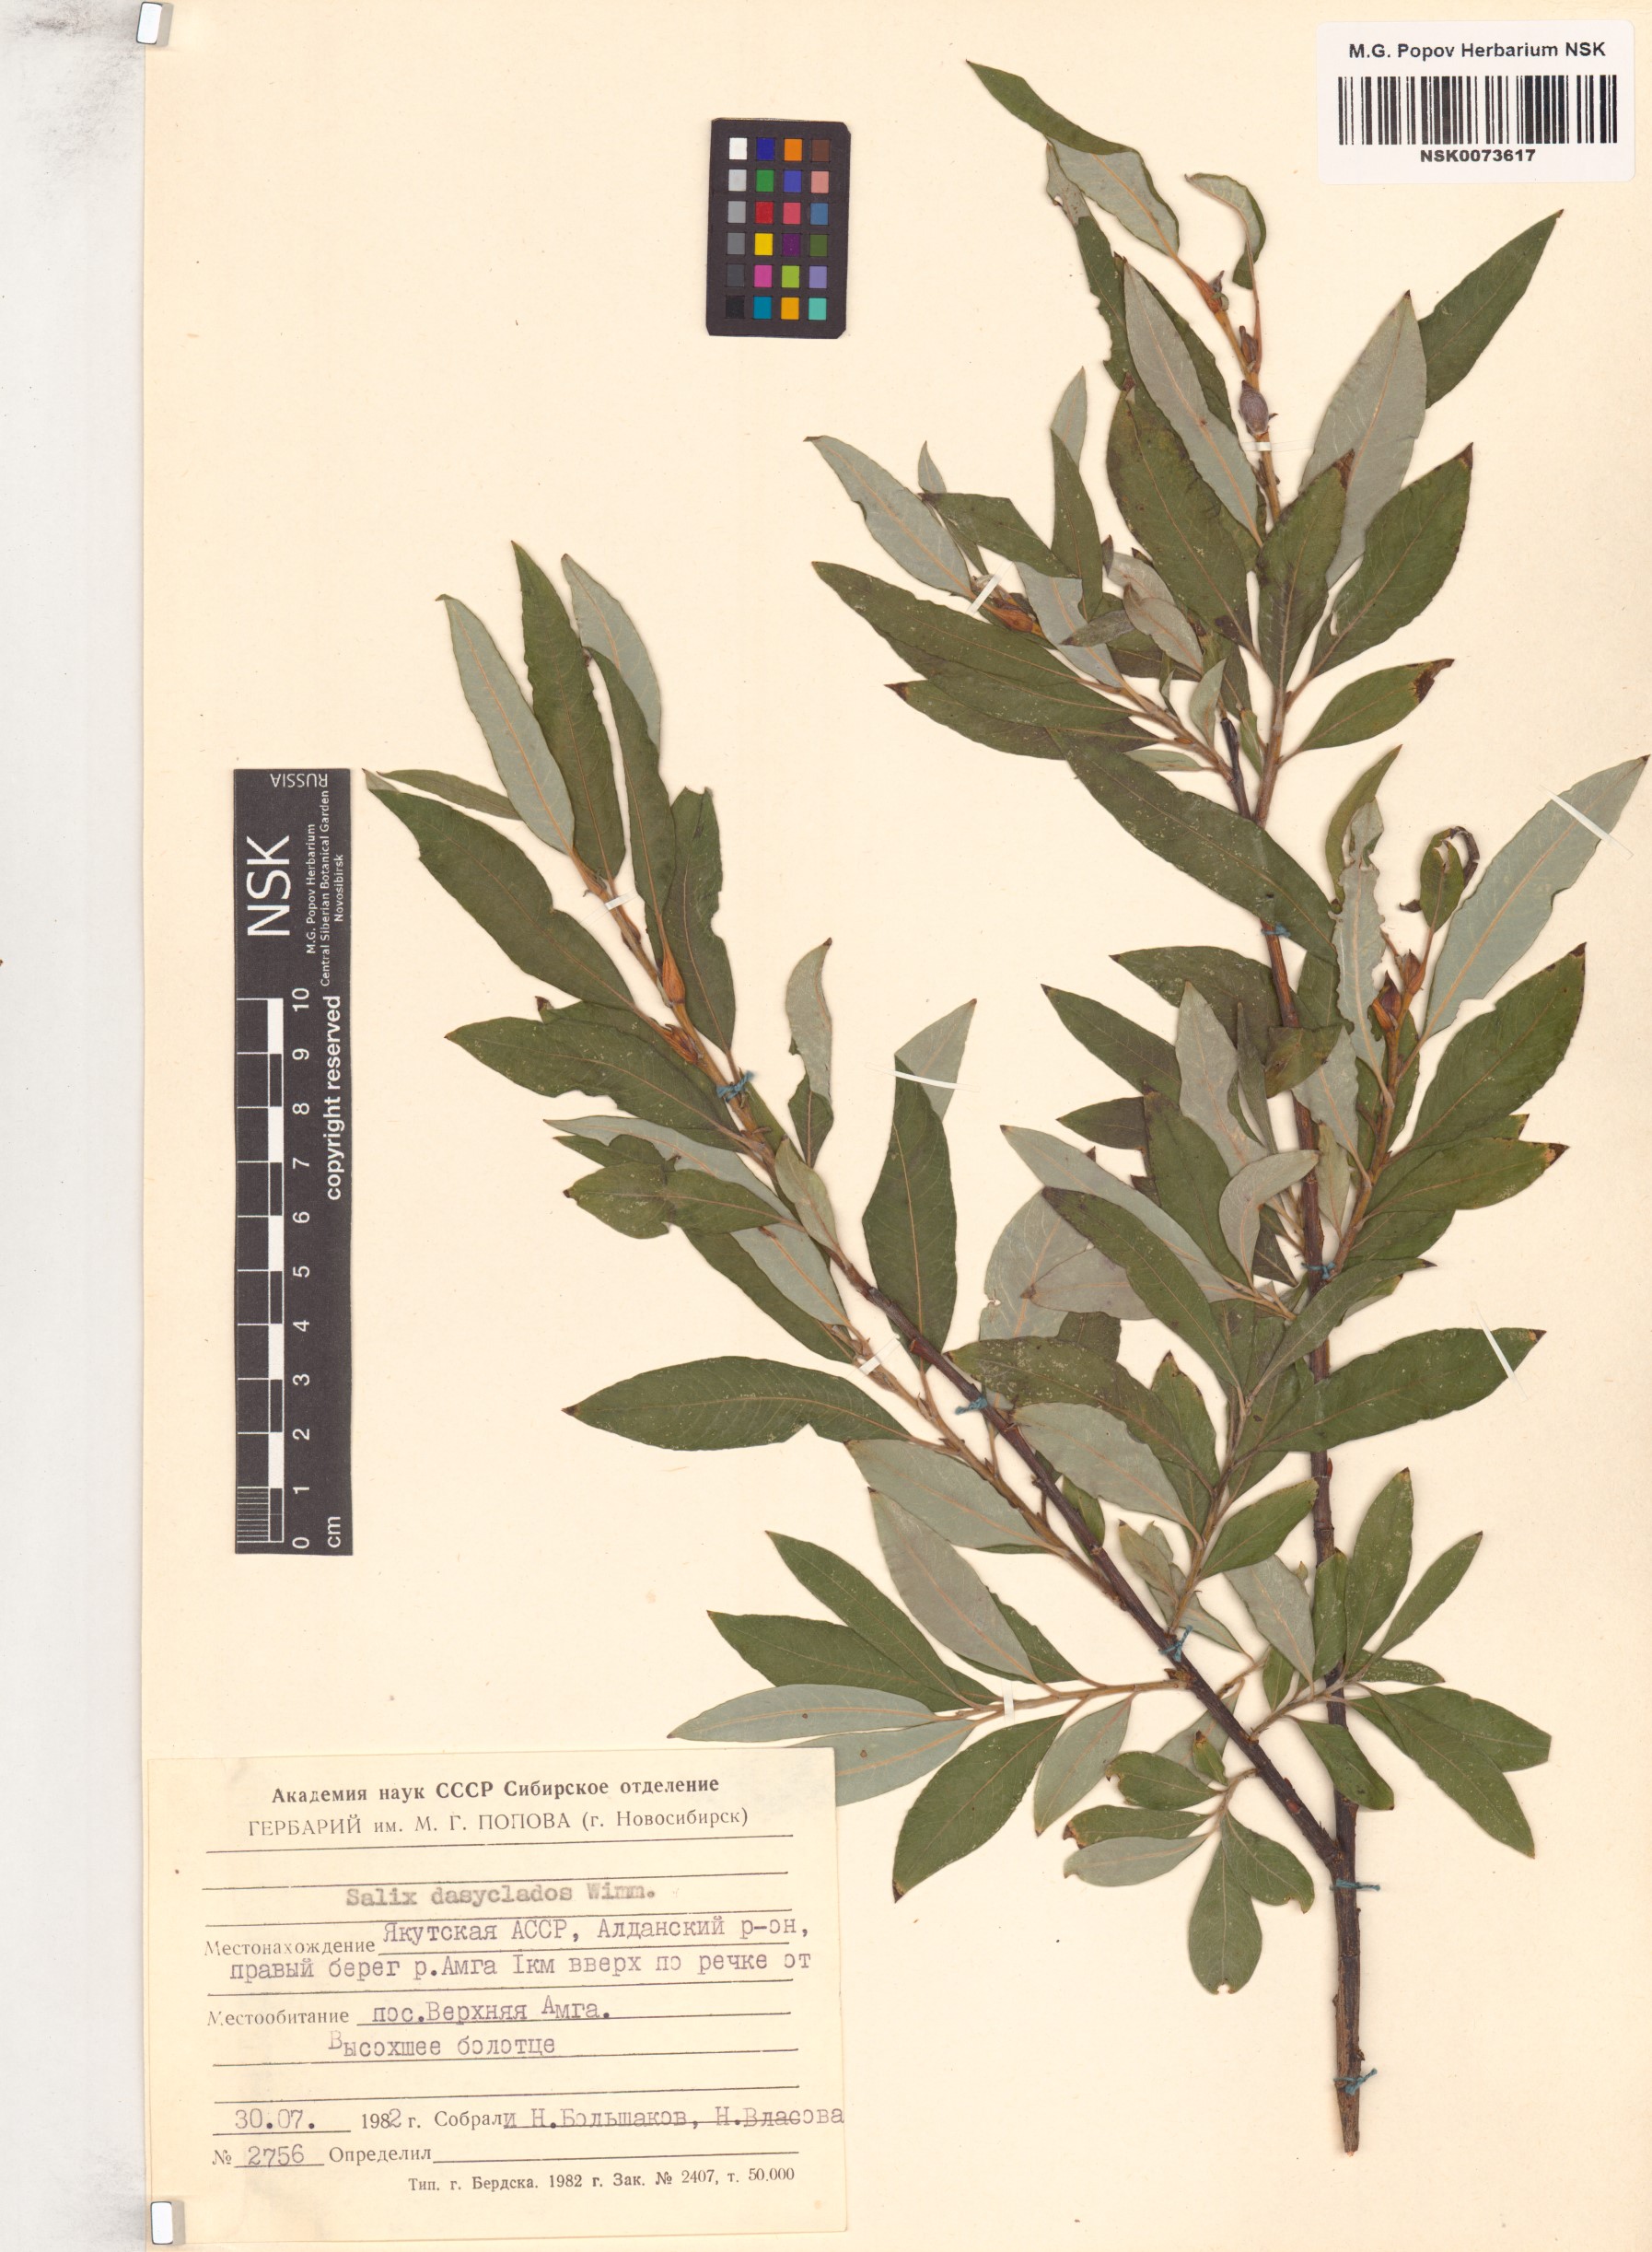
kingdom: Plantae
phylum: Tracheophyta
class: Magnoliopsida
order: Malpighiales
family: Salicaceae
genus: Salix
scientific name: Salix gmelinii
